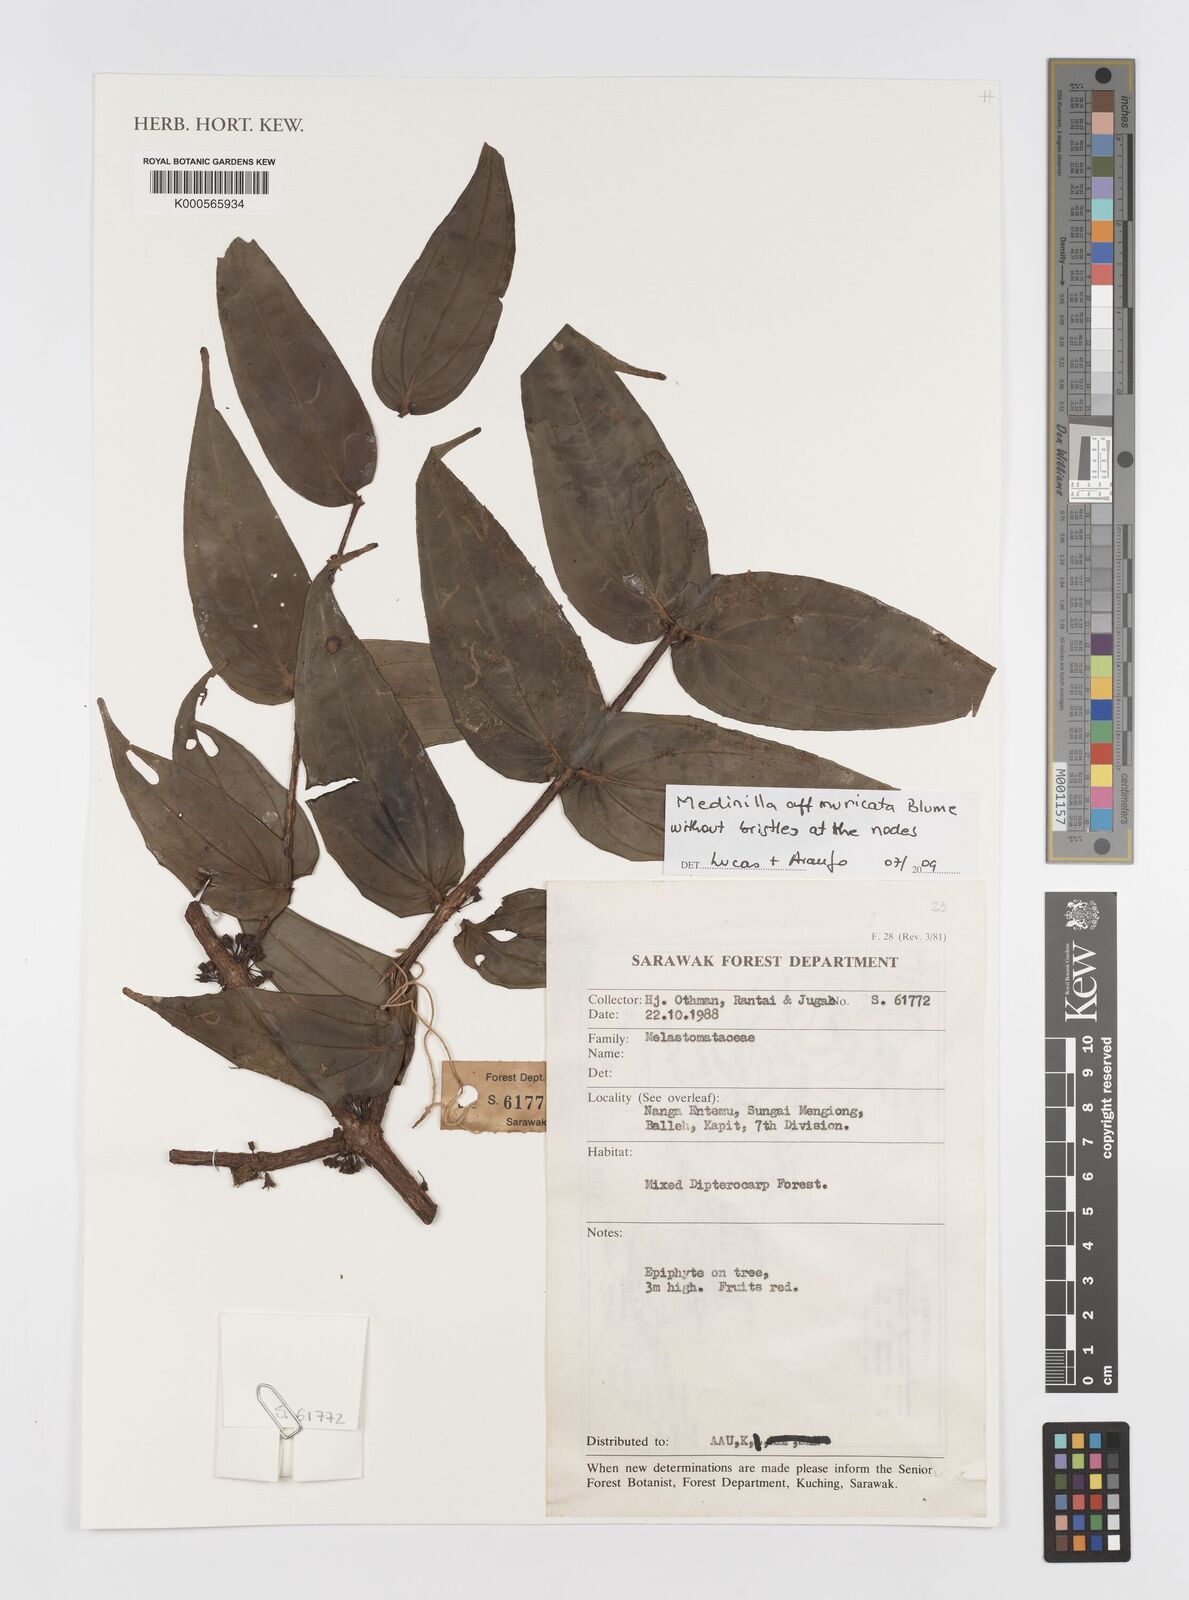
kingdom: Plantae
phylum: Tracheophyta
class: Magnoliopsida
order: Myrtales
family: Melastomataceae
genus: Medinilla
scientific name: Medinilla muricata
